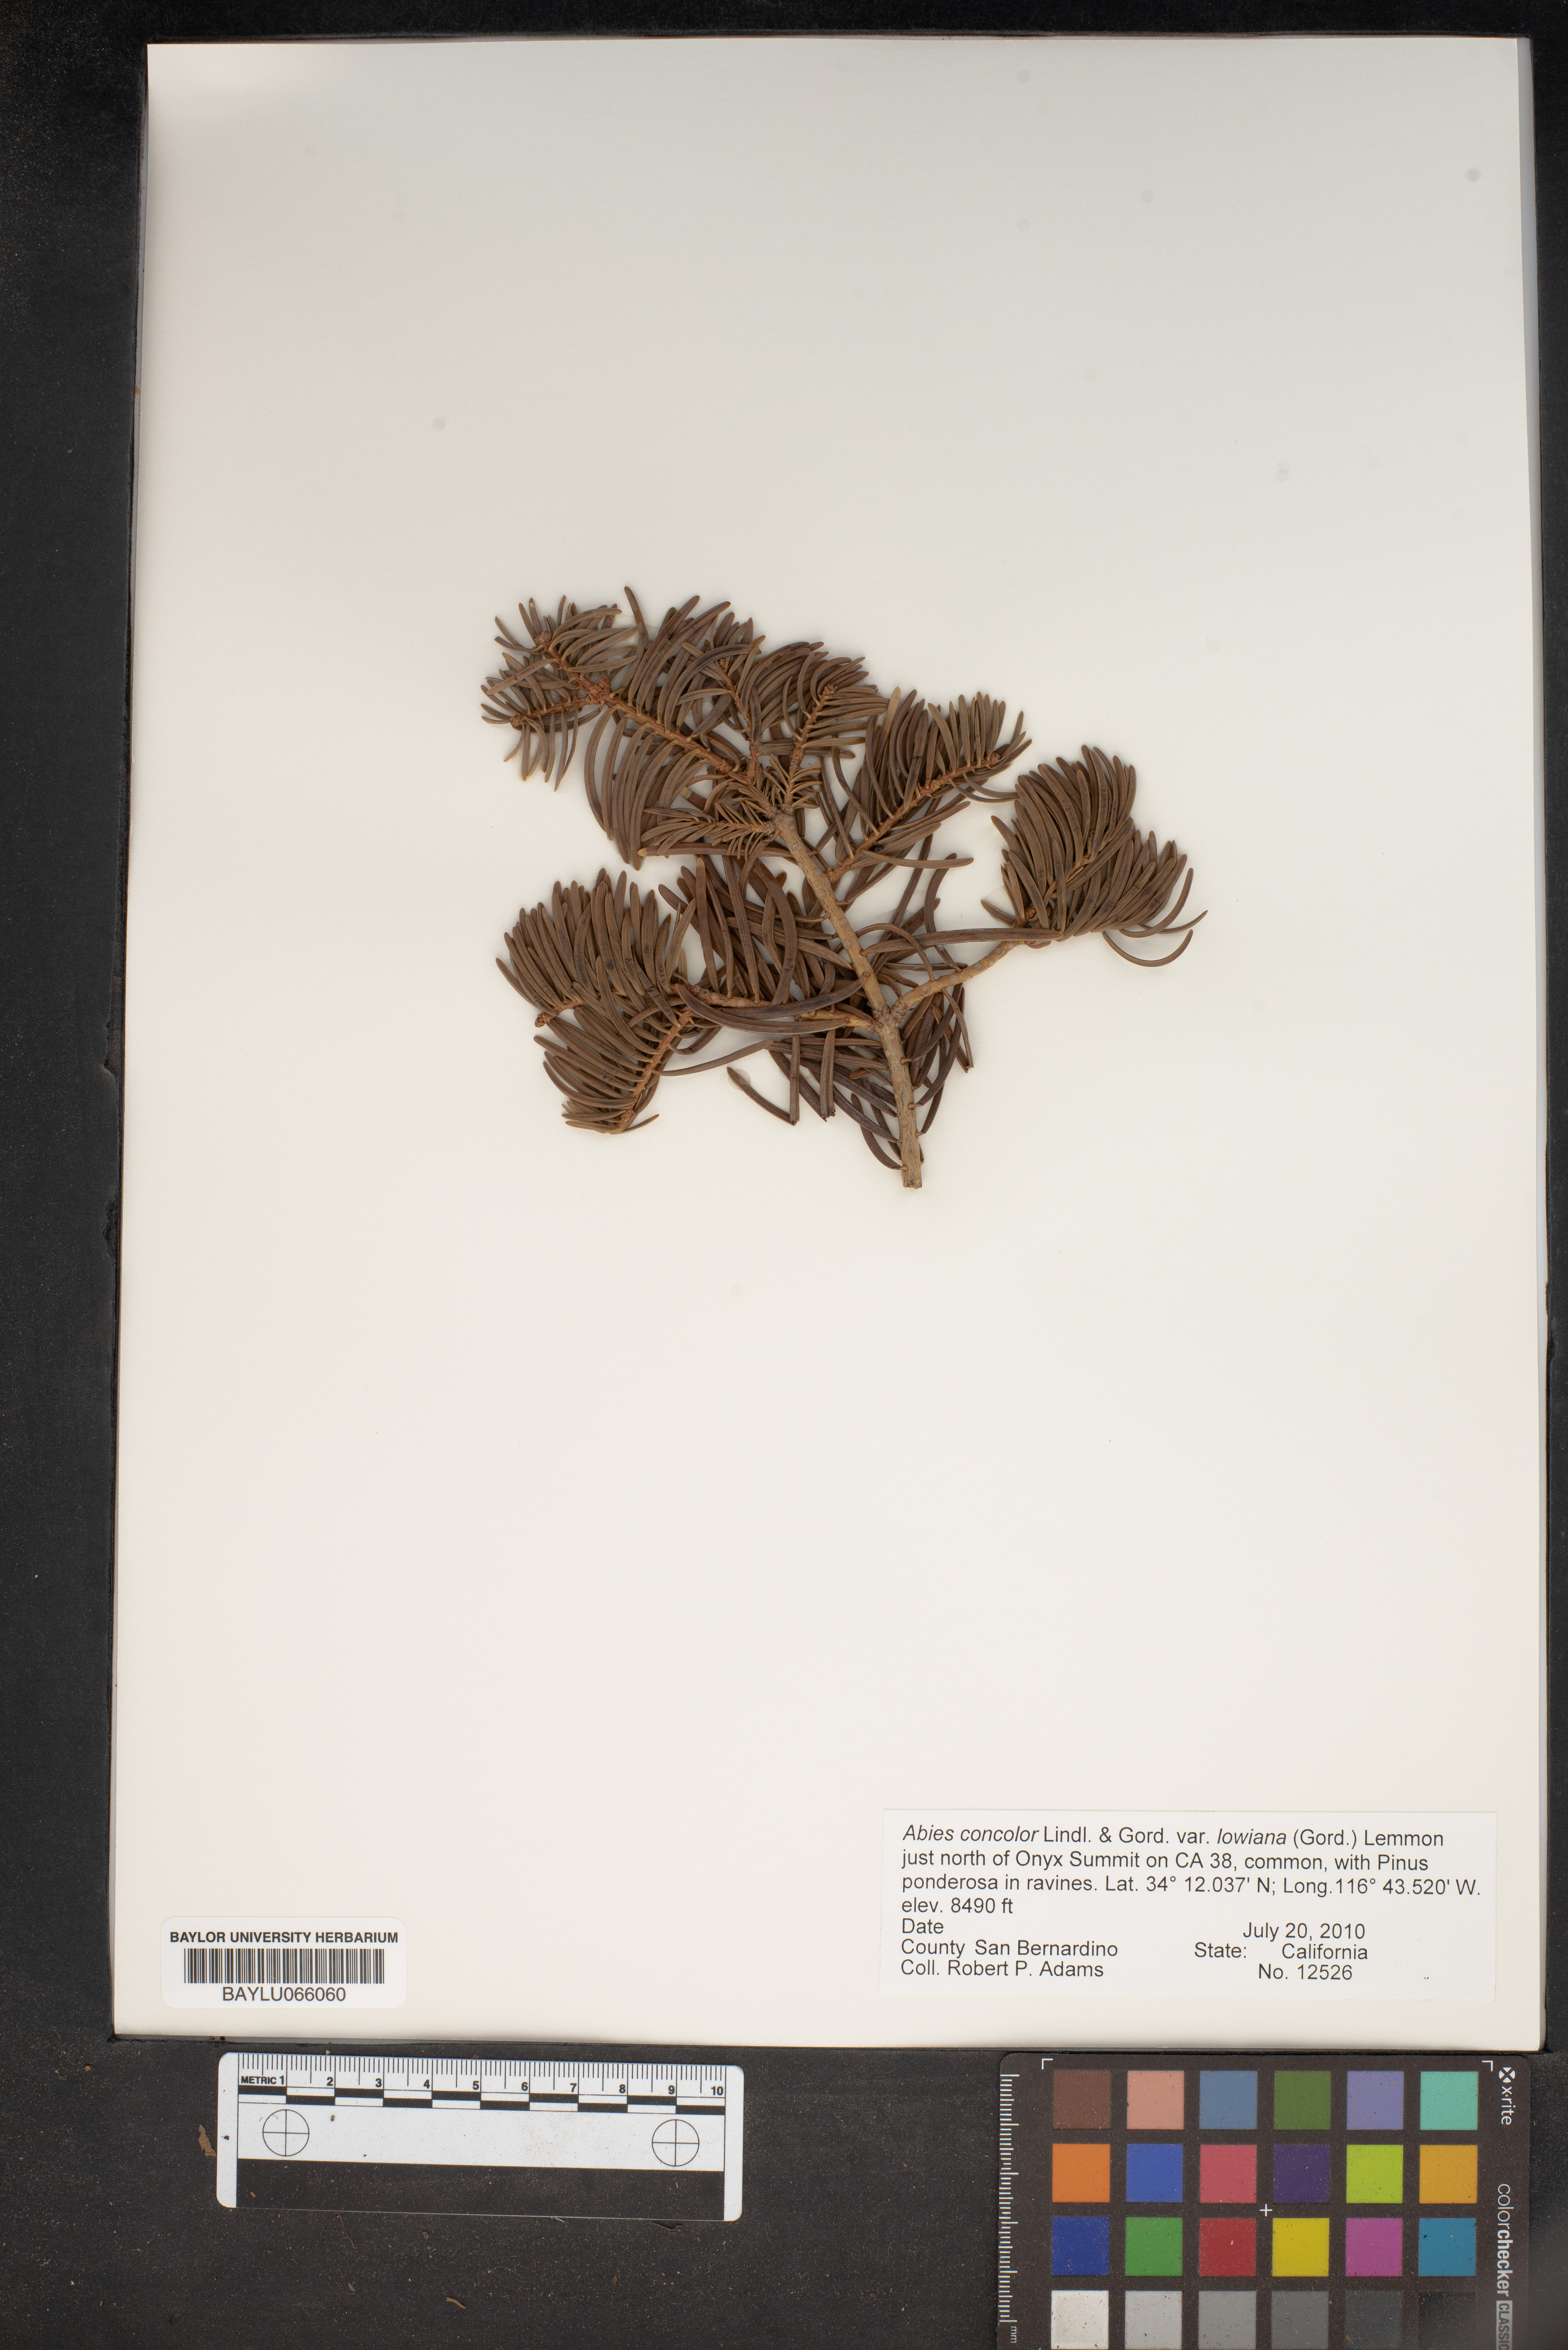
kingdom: Plantae
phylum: Tracheophyta
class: Pinopsida
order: Pinales
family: Pinaceae
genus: Abies
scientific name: Abies concolor
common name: Colorado fir
